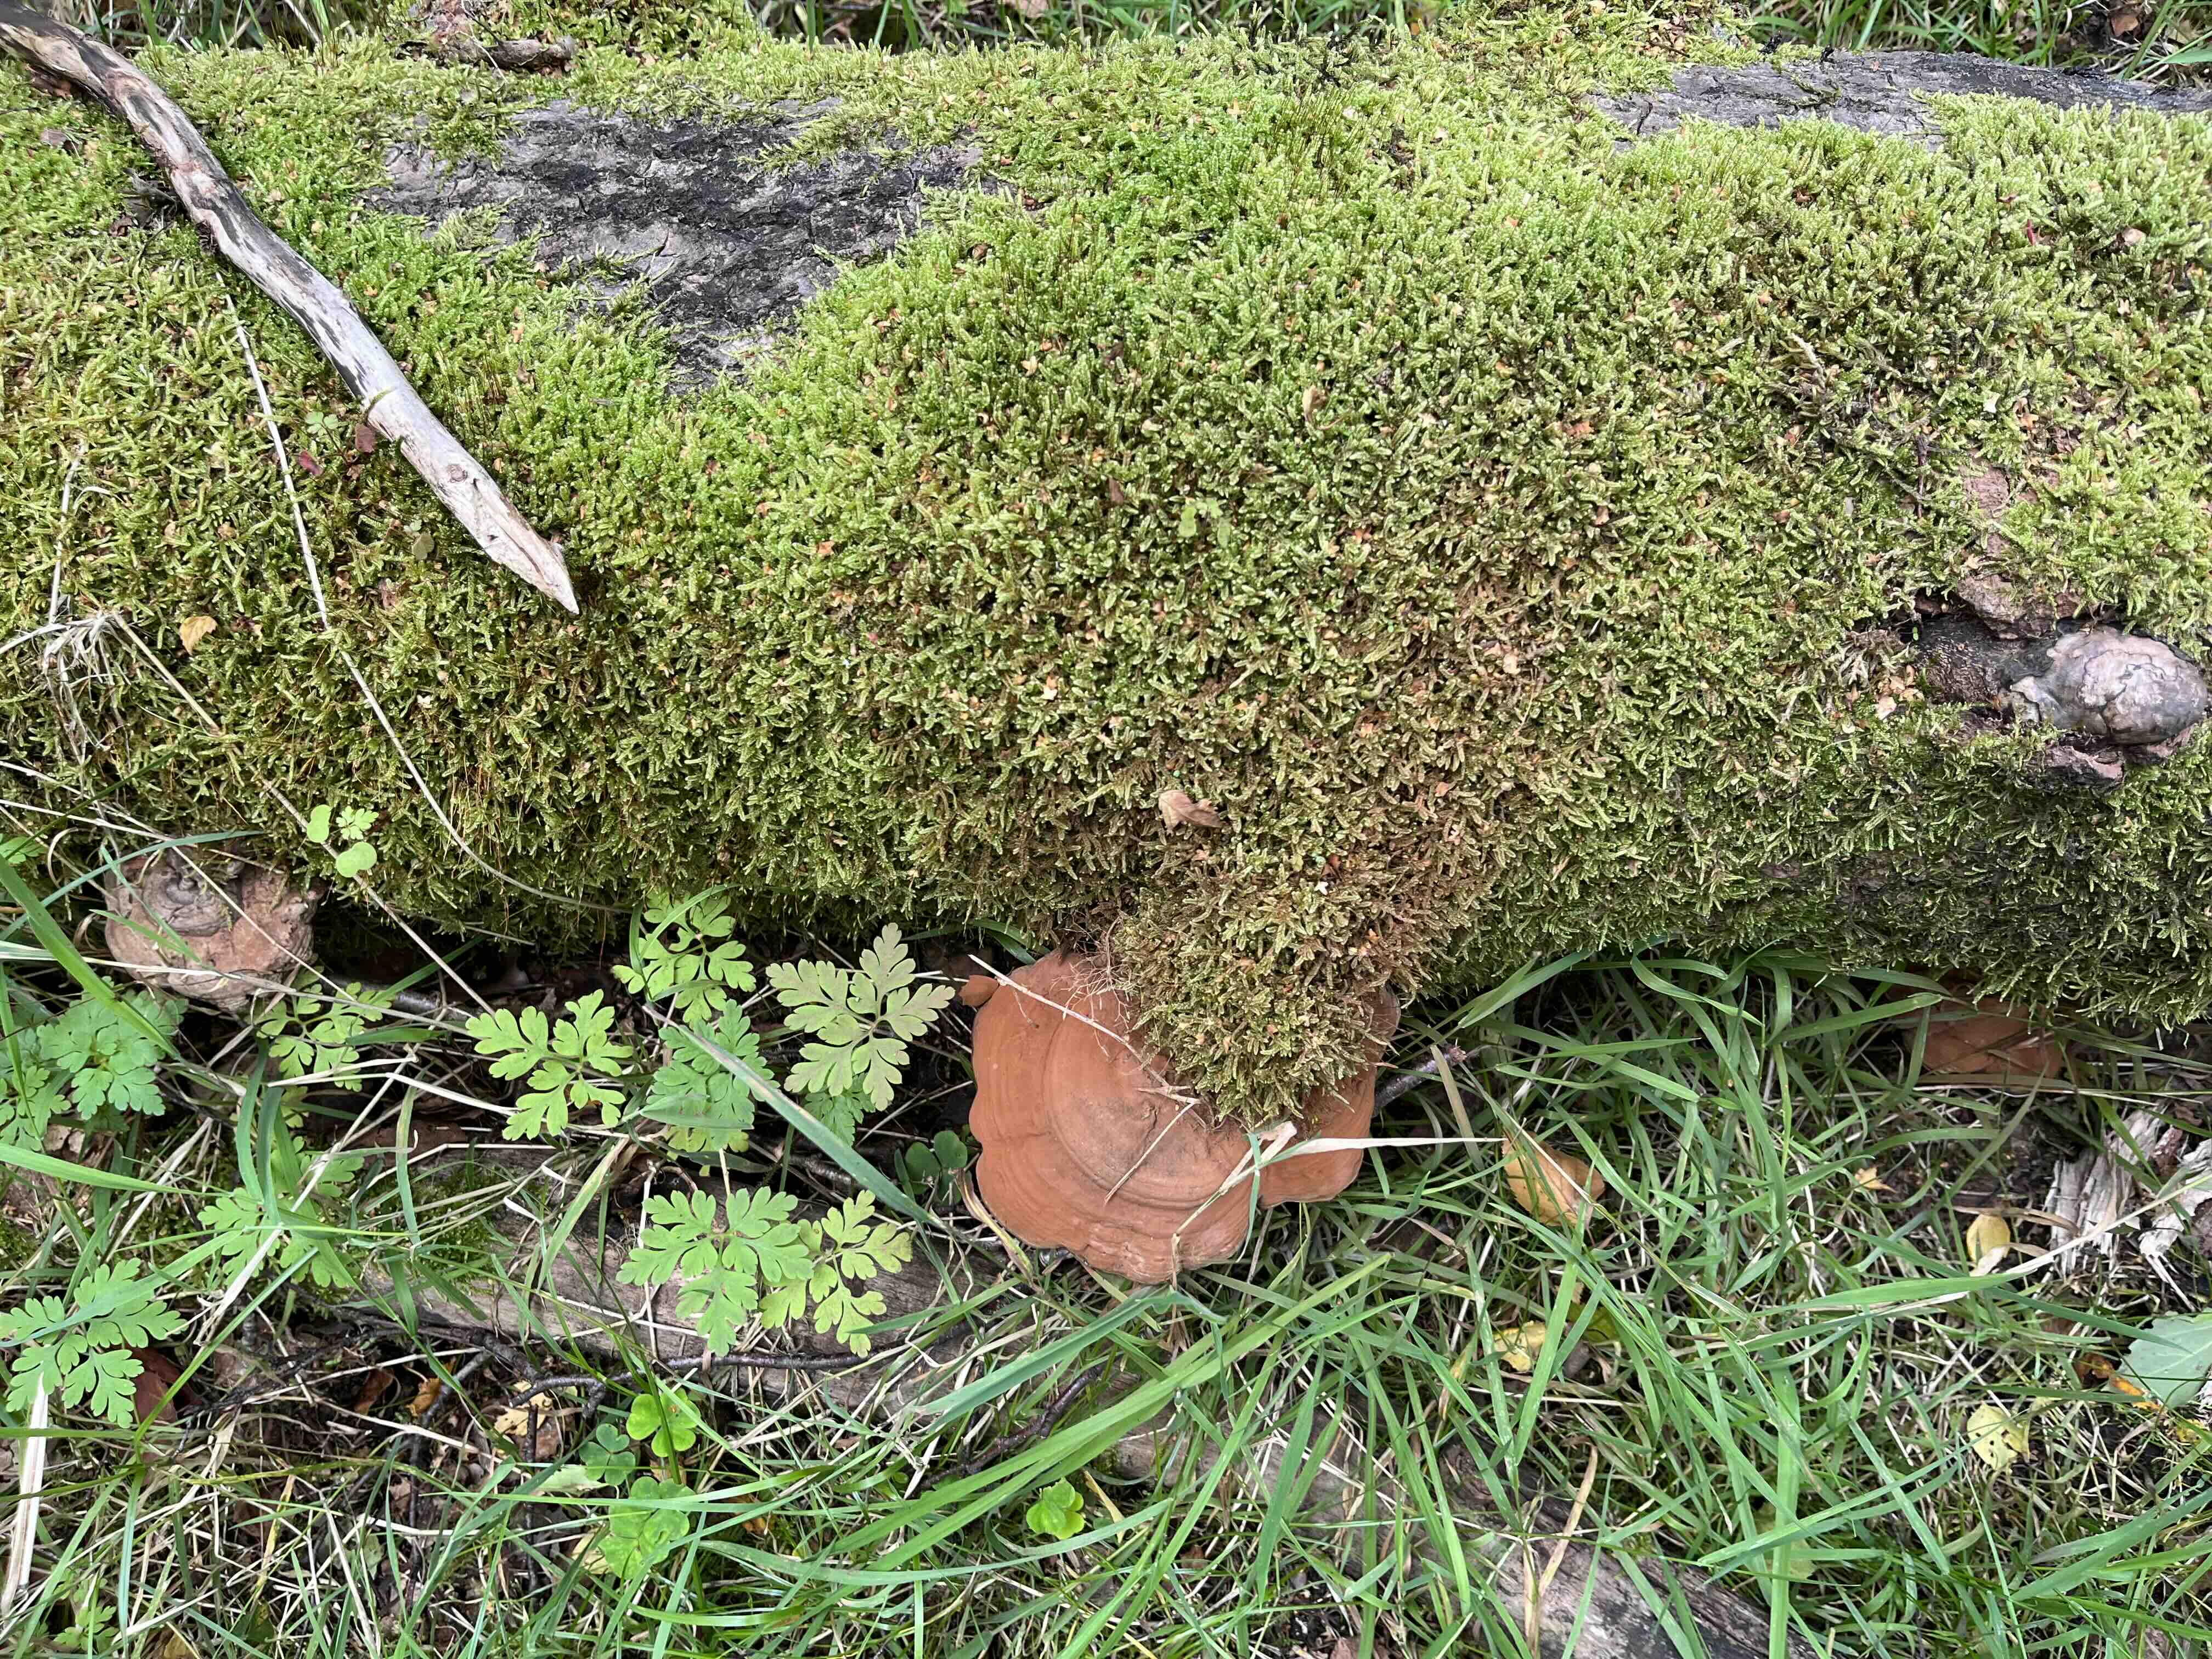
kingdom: Fungi
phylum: Basidiomycota
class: Agaricomycetes
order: Polyporales
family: Polyporaceae
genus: Ganoderma
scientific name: Ganoderma applanatum
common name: flad lakporesvamp
